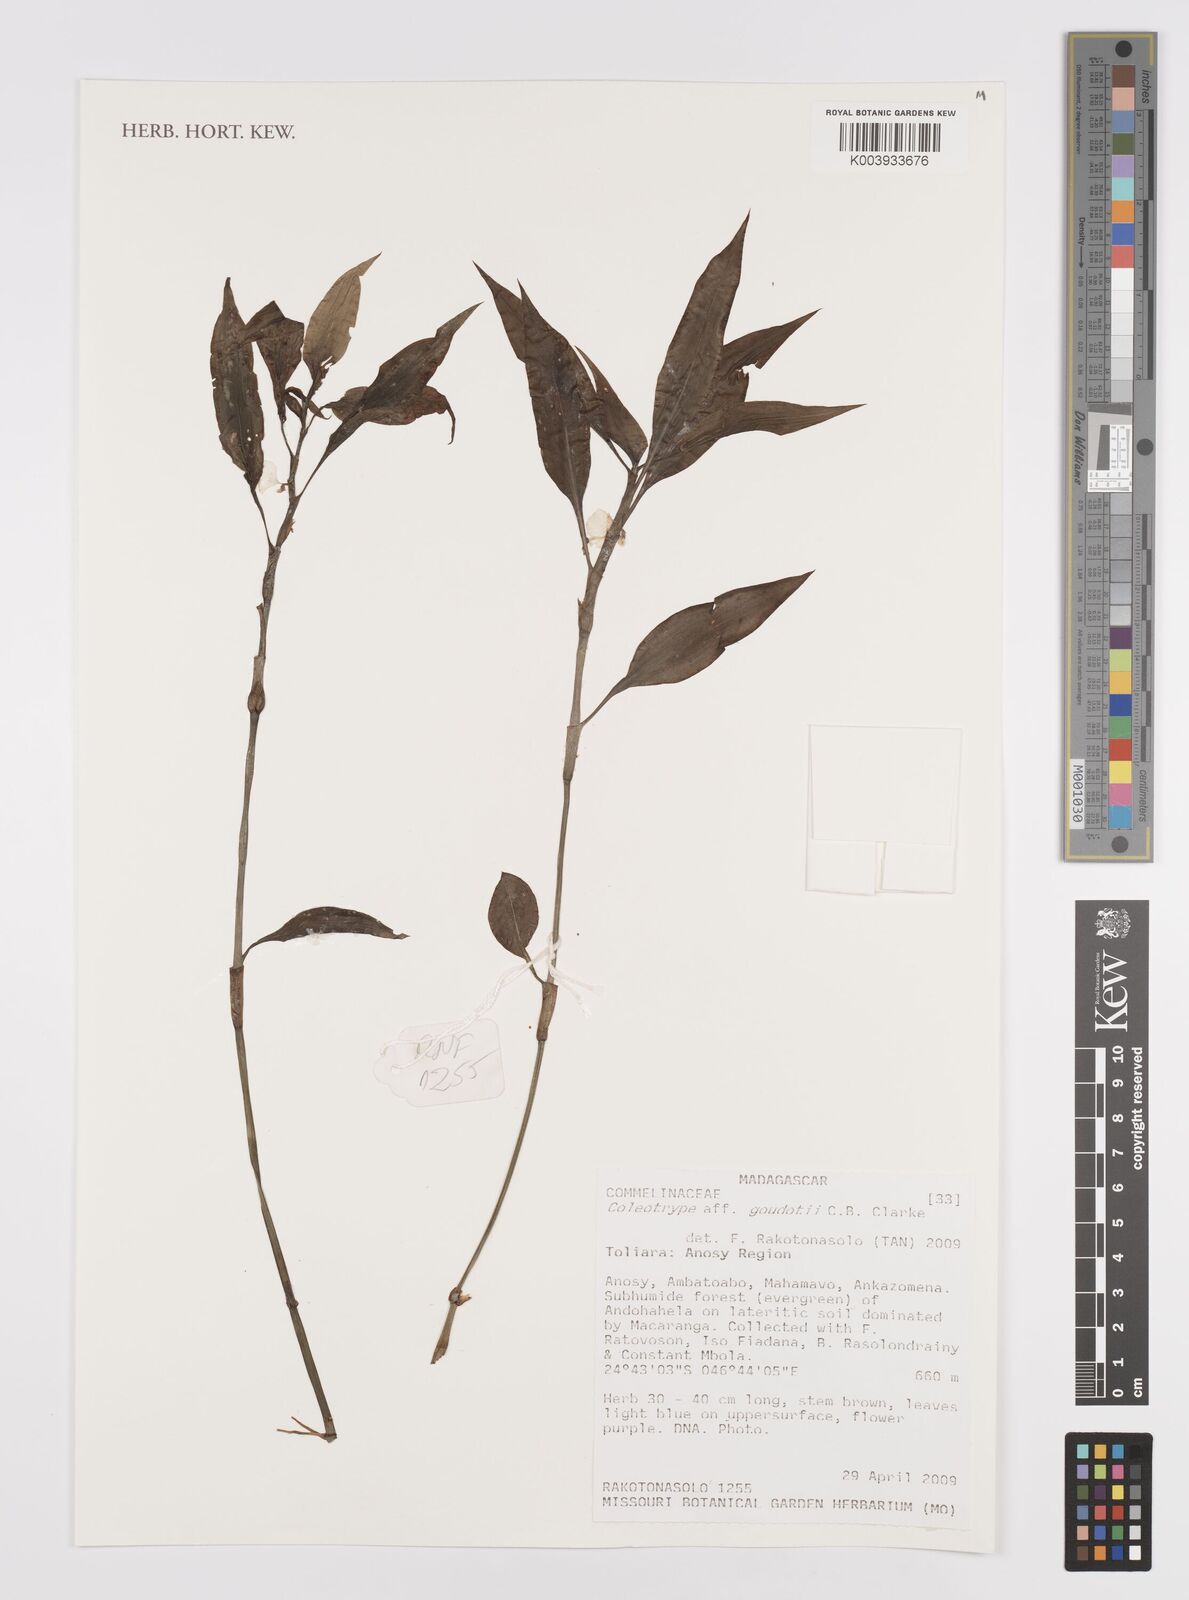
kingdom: Plantae
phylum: Tracheophyta
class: Liliopsida
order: Commelinales
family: Commelinaceae
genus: Coleotrype
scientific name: Coleotrype goudotii
